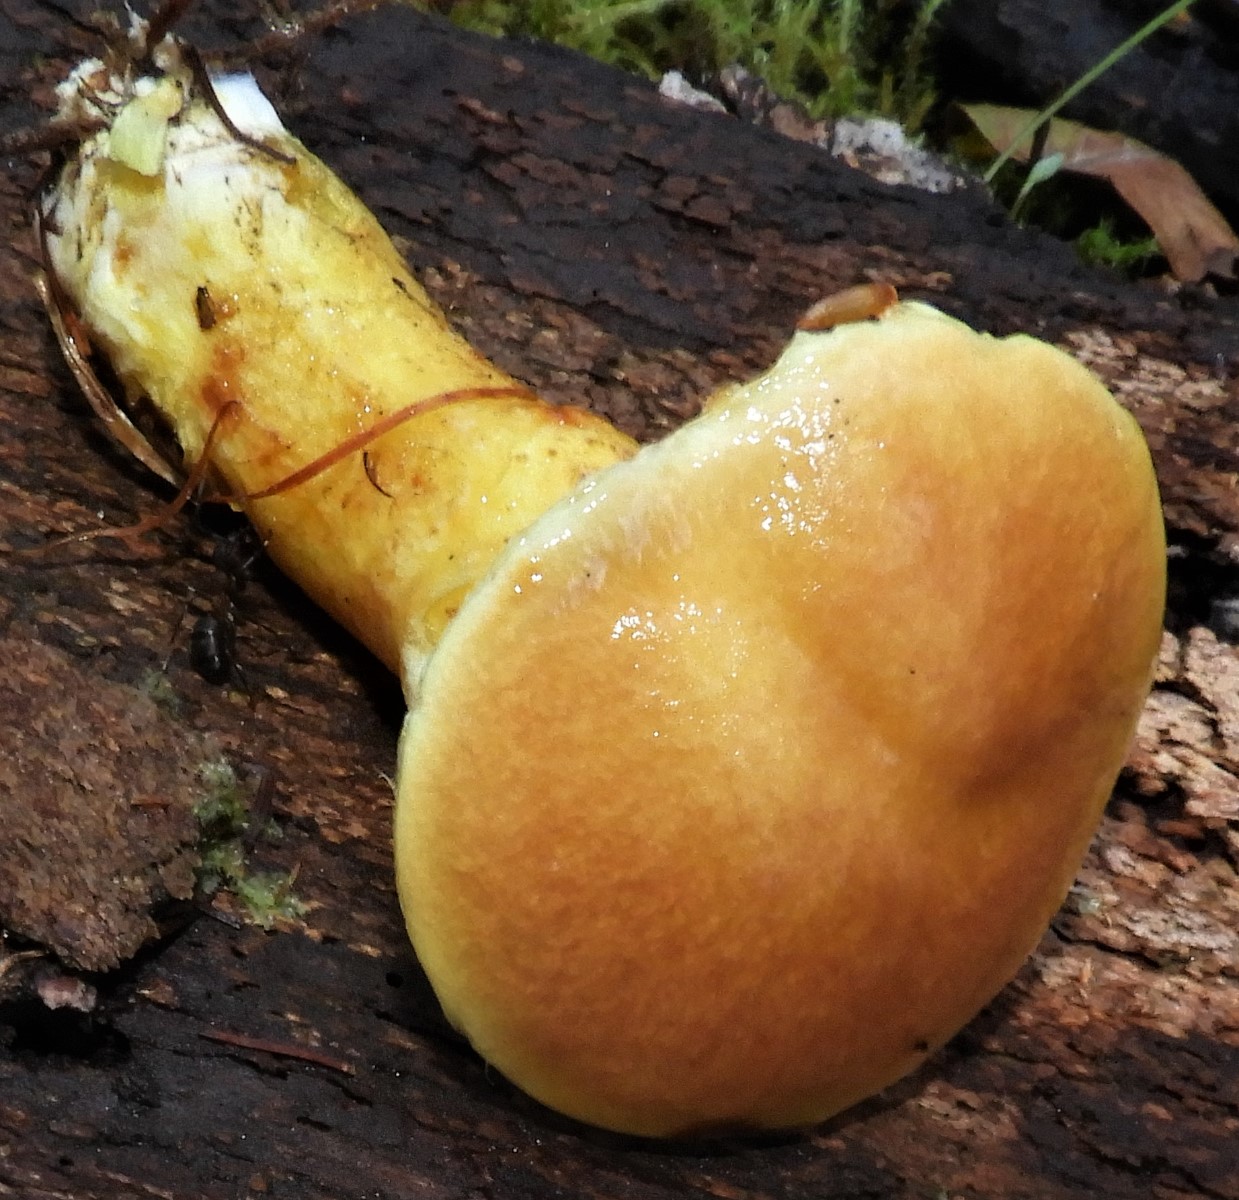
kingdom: Fungi
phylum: Basidiomycota
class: Agaricomycetes
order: Boletales
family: Suillaceae
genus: Suillus
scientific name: Suillus grevillei
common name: lærke-slimrørhat
